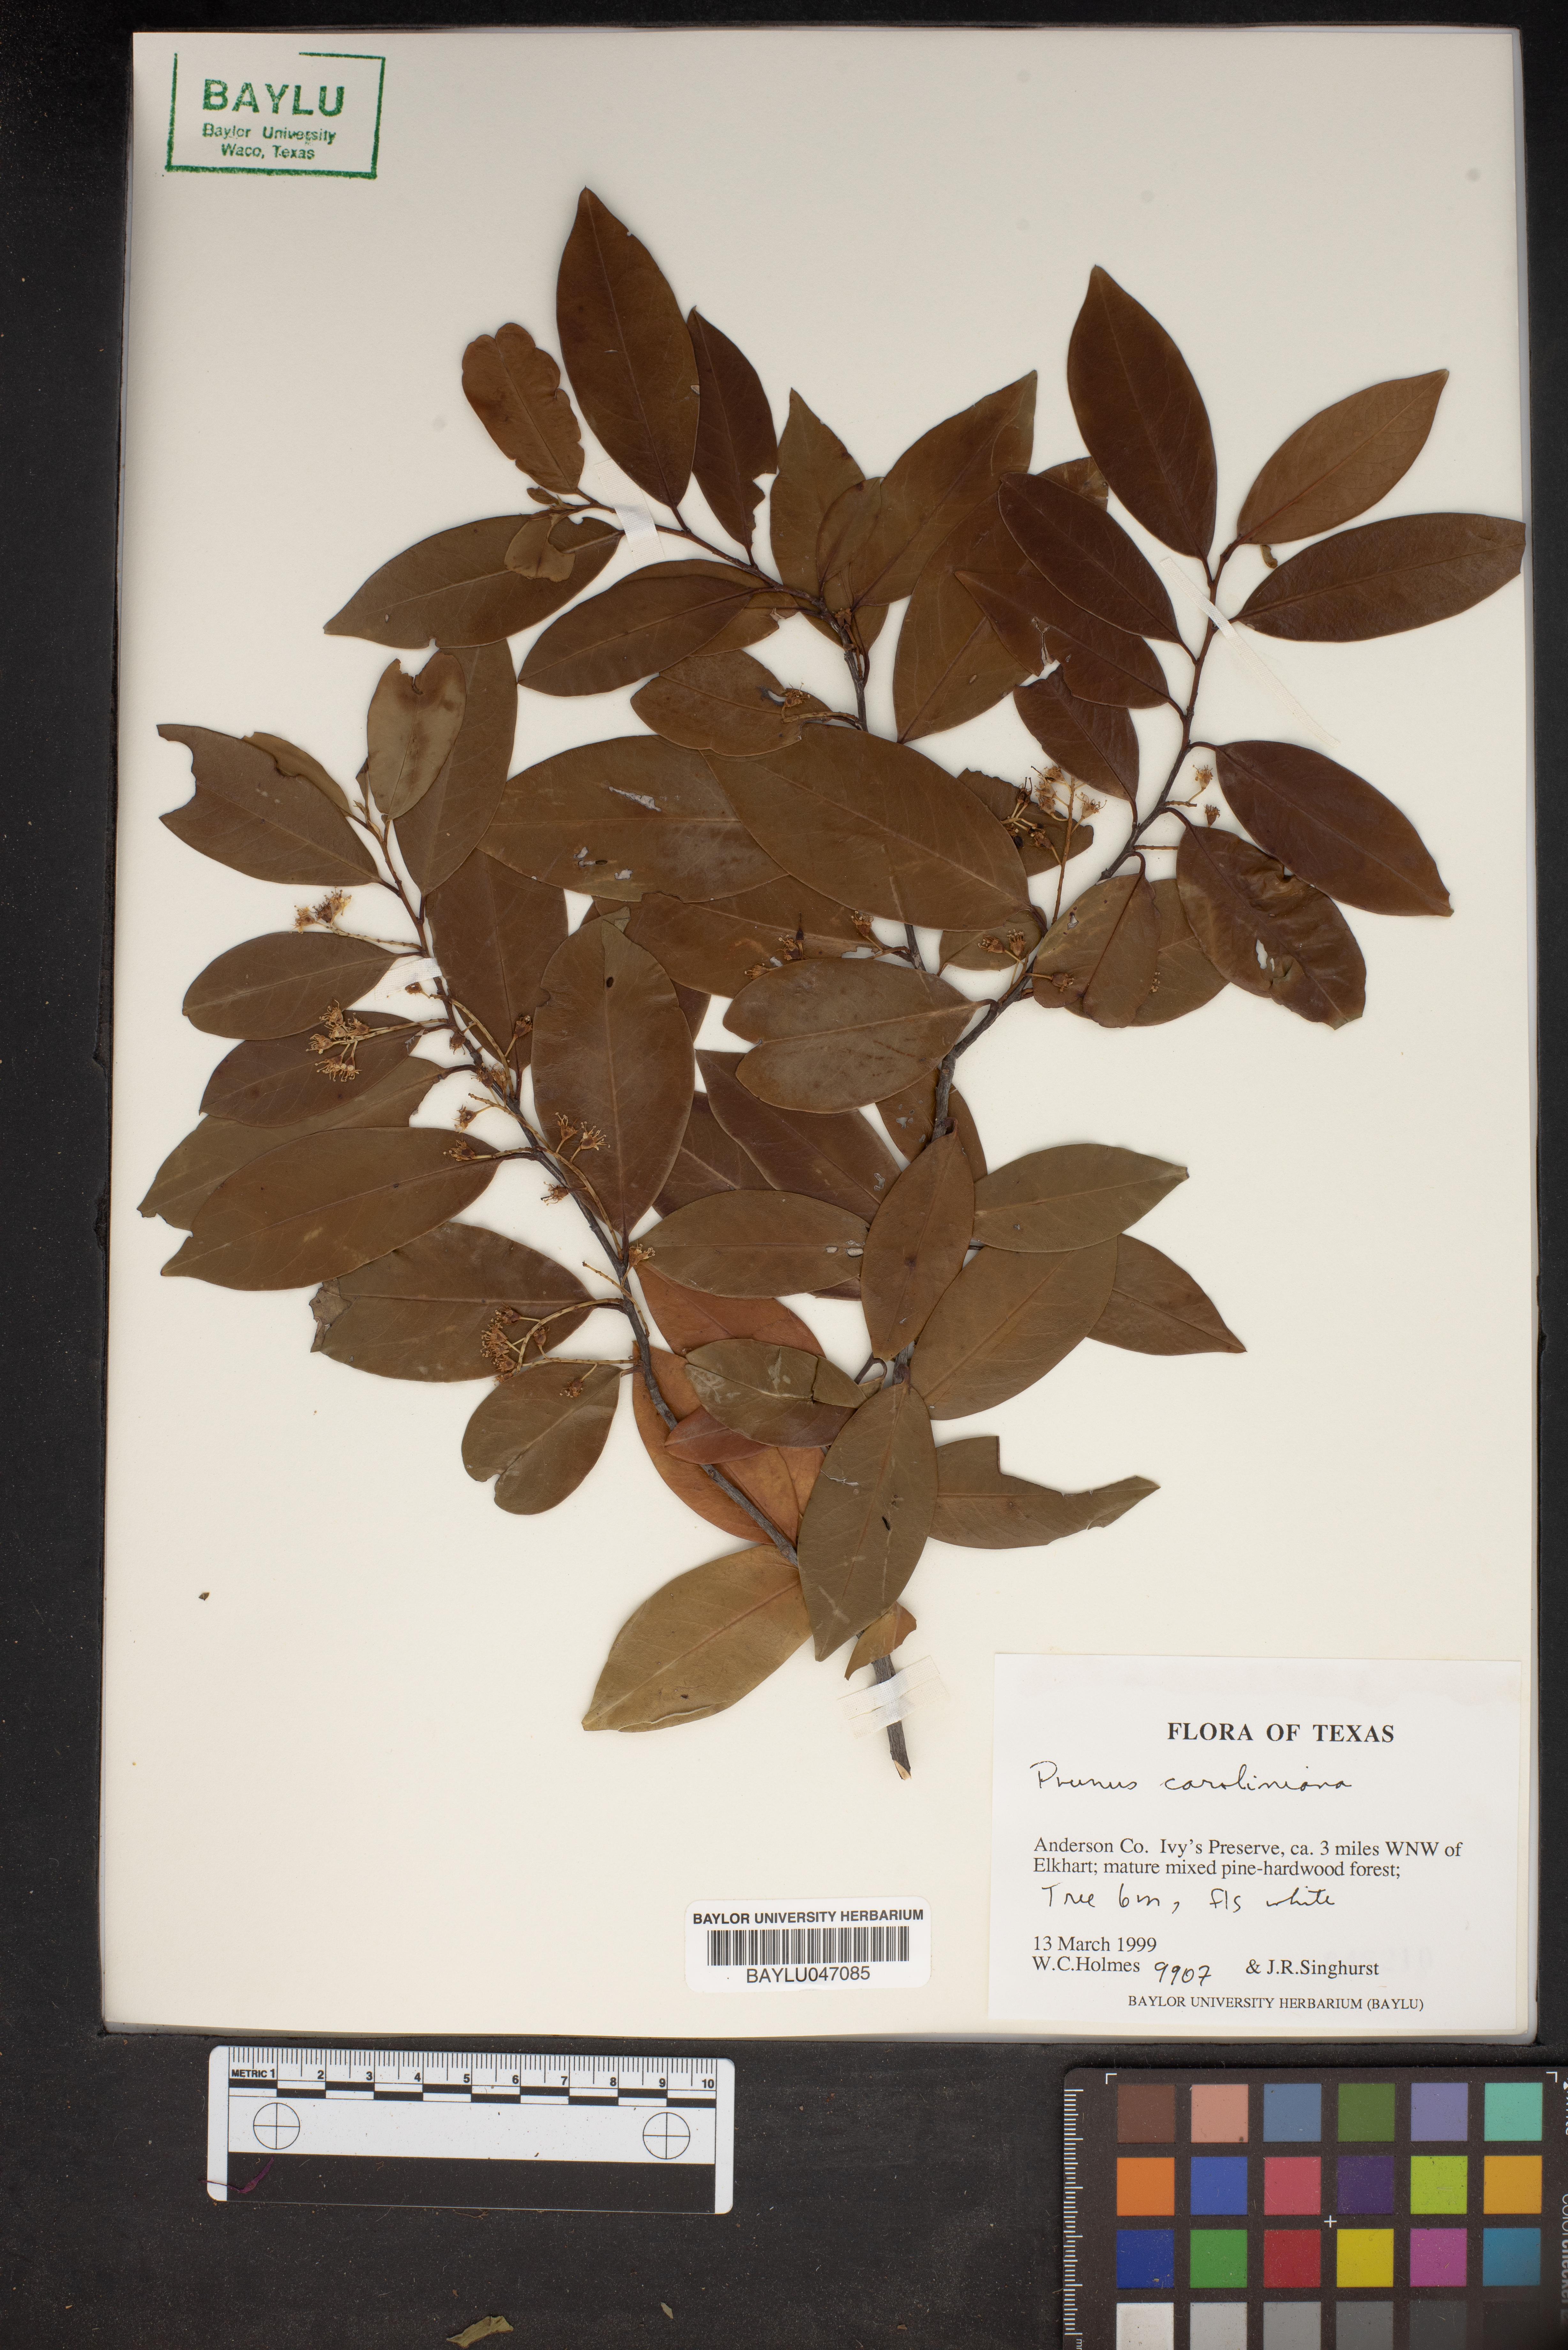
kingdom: Plantae
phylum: Tracheophyta
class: Magnoliopsida
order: Rosales
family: Rosaceae
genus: Prunus
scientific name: Prunus caroliniana
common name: Carolina laurel cherry
